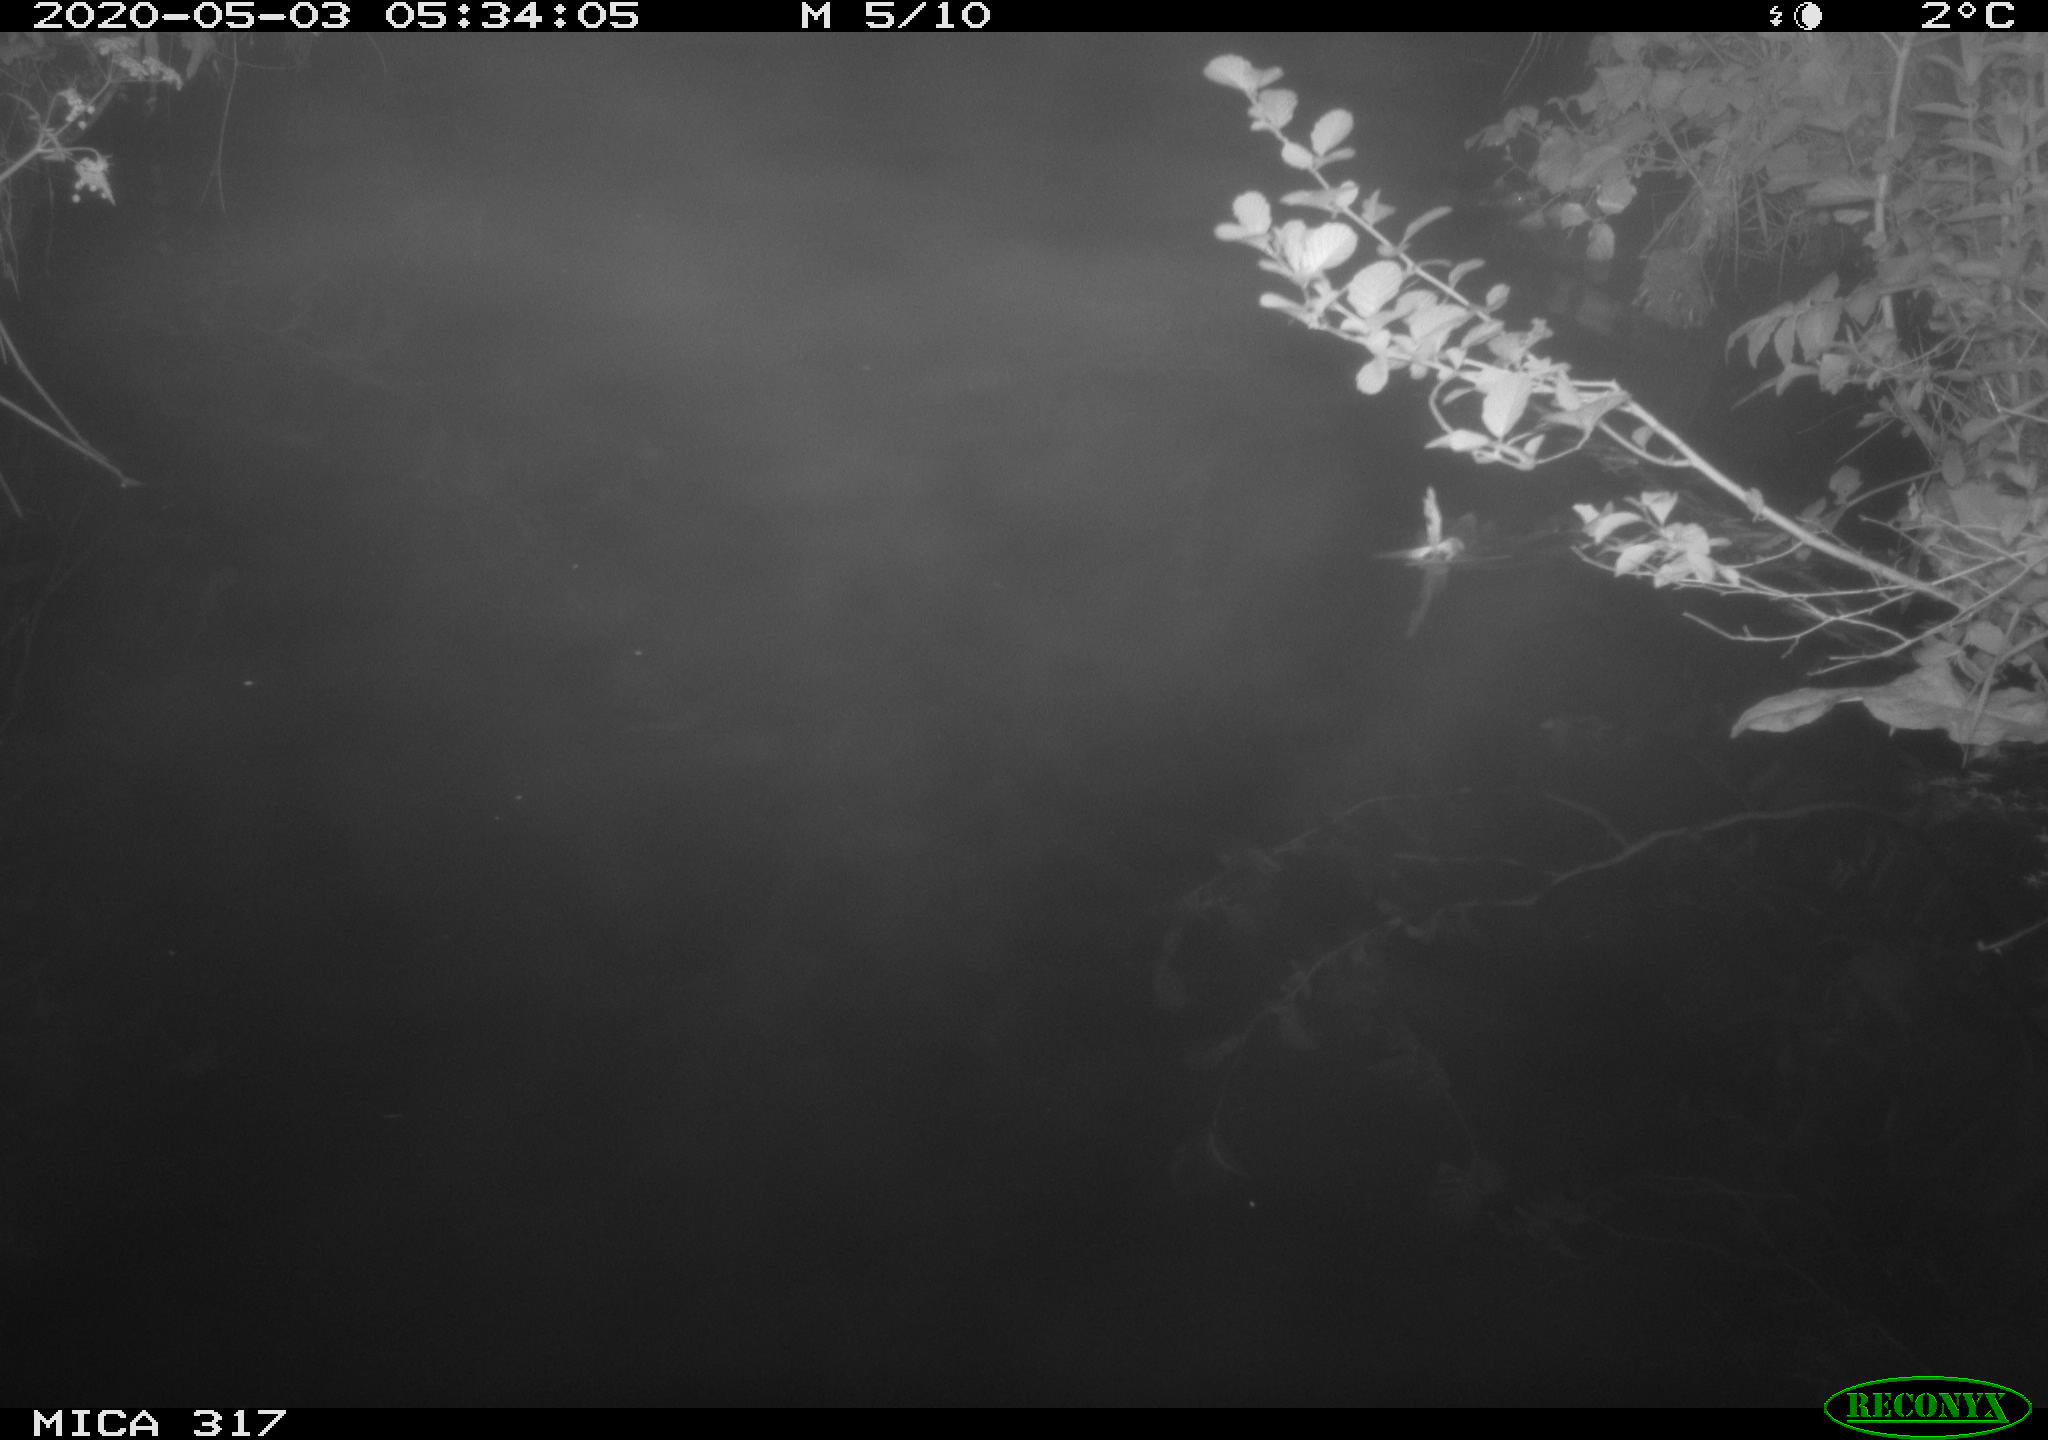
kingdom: Animalia
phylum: Chordata
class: Aves
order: Anseriformes
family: Anatidae
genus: Anas
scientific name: Anas platyrhynchos
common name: Mallard
